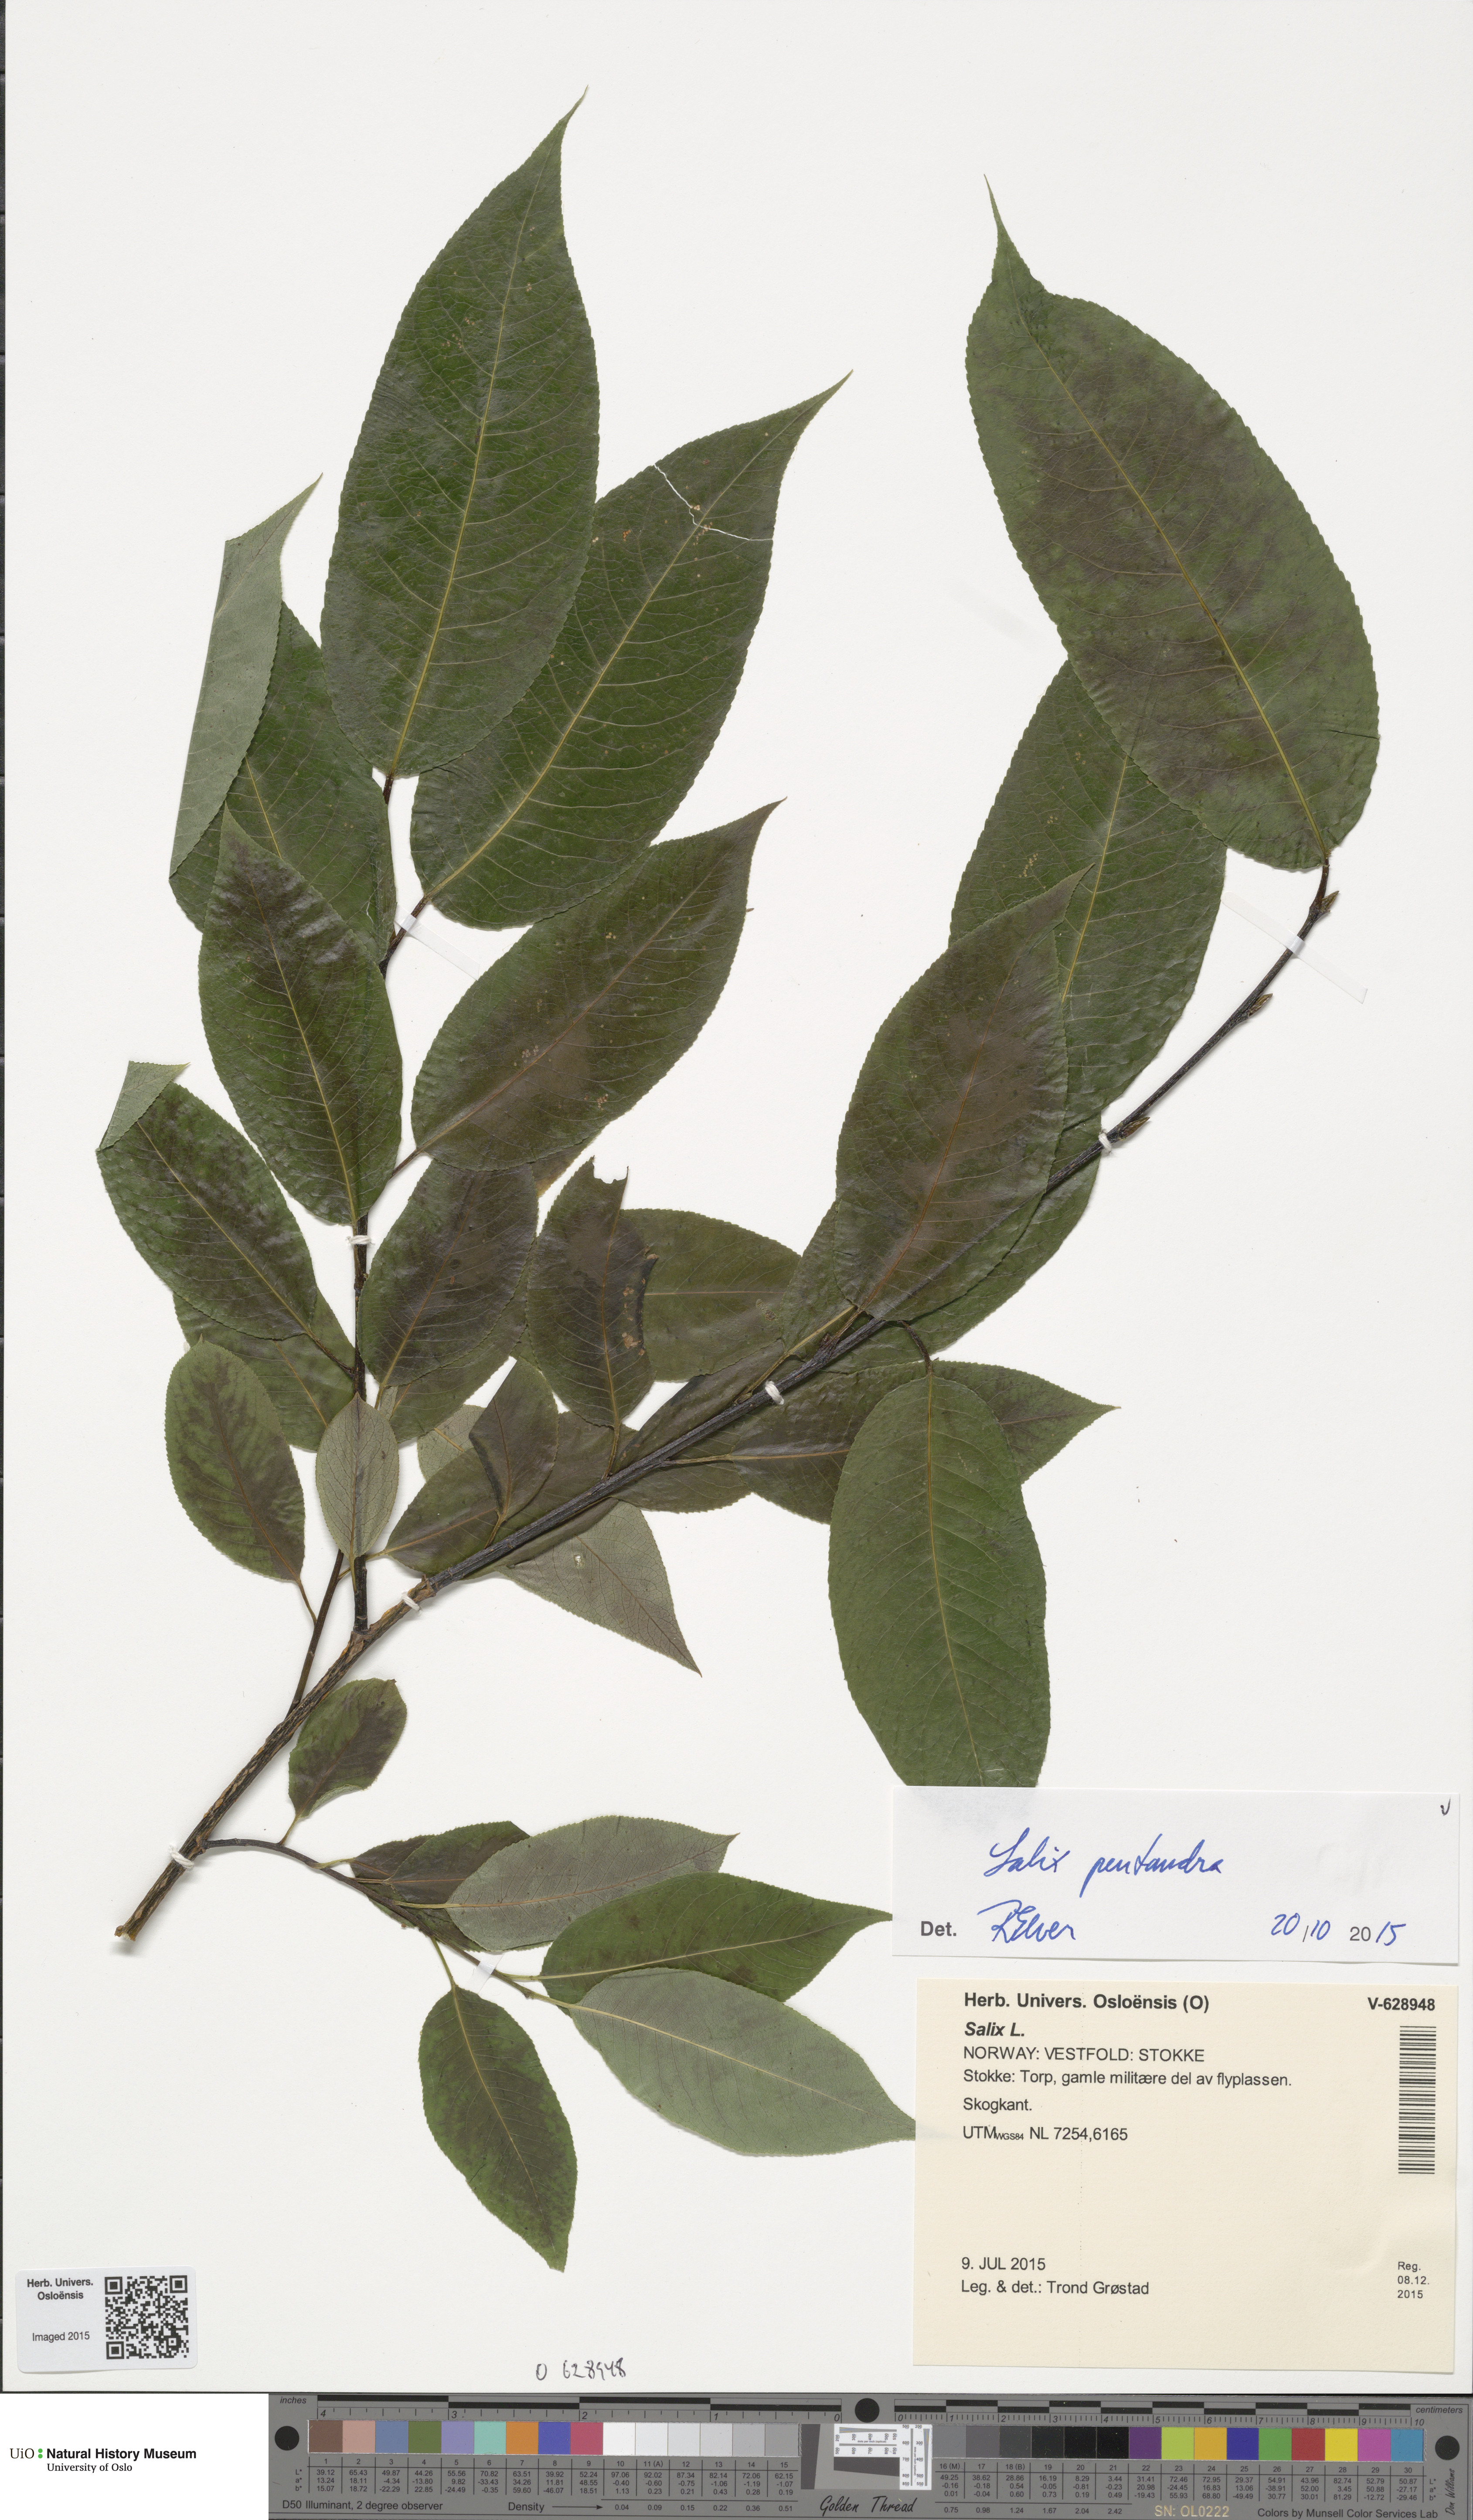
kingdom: Plantae
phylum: Tracheophyta
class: Magnoliopsida
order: Malpighiales
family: Salicaceae
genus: Salix
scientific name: Salix pentandra
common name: Bay willow
